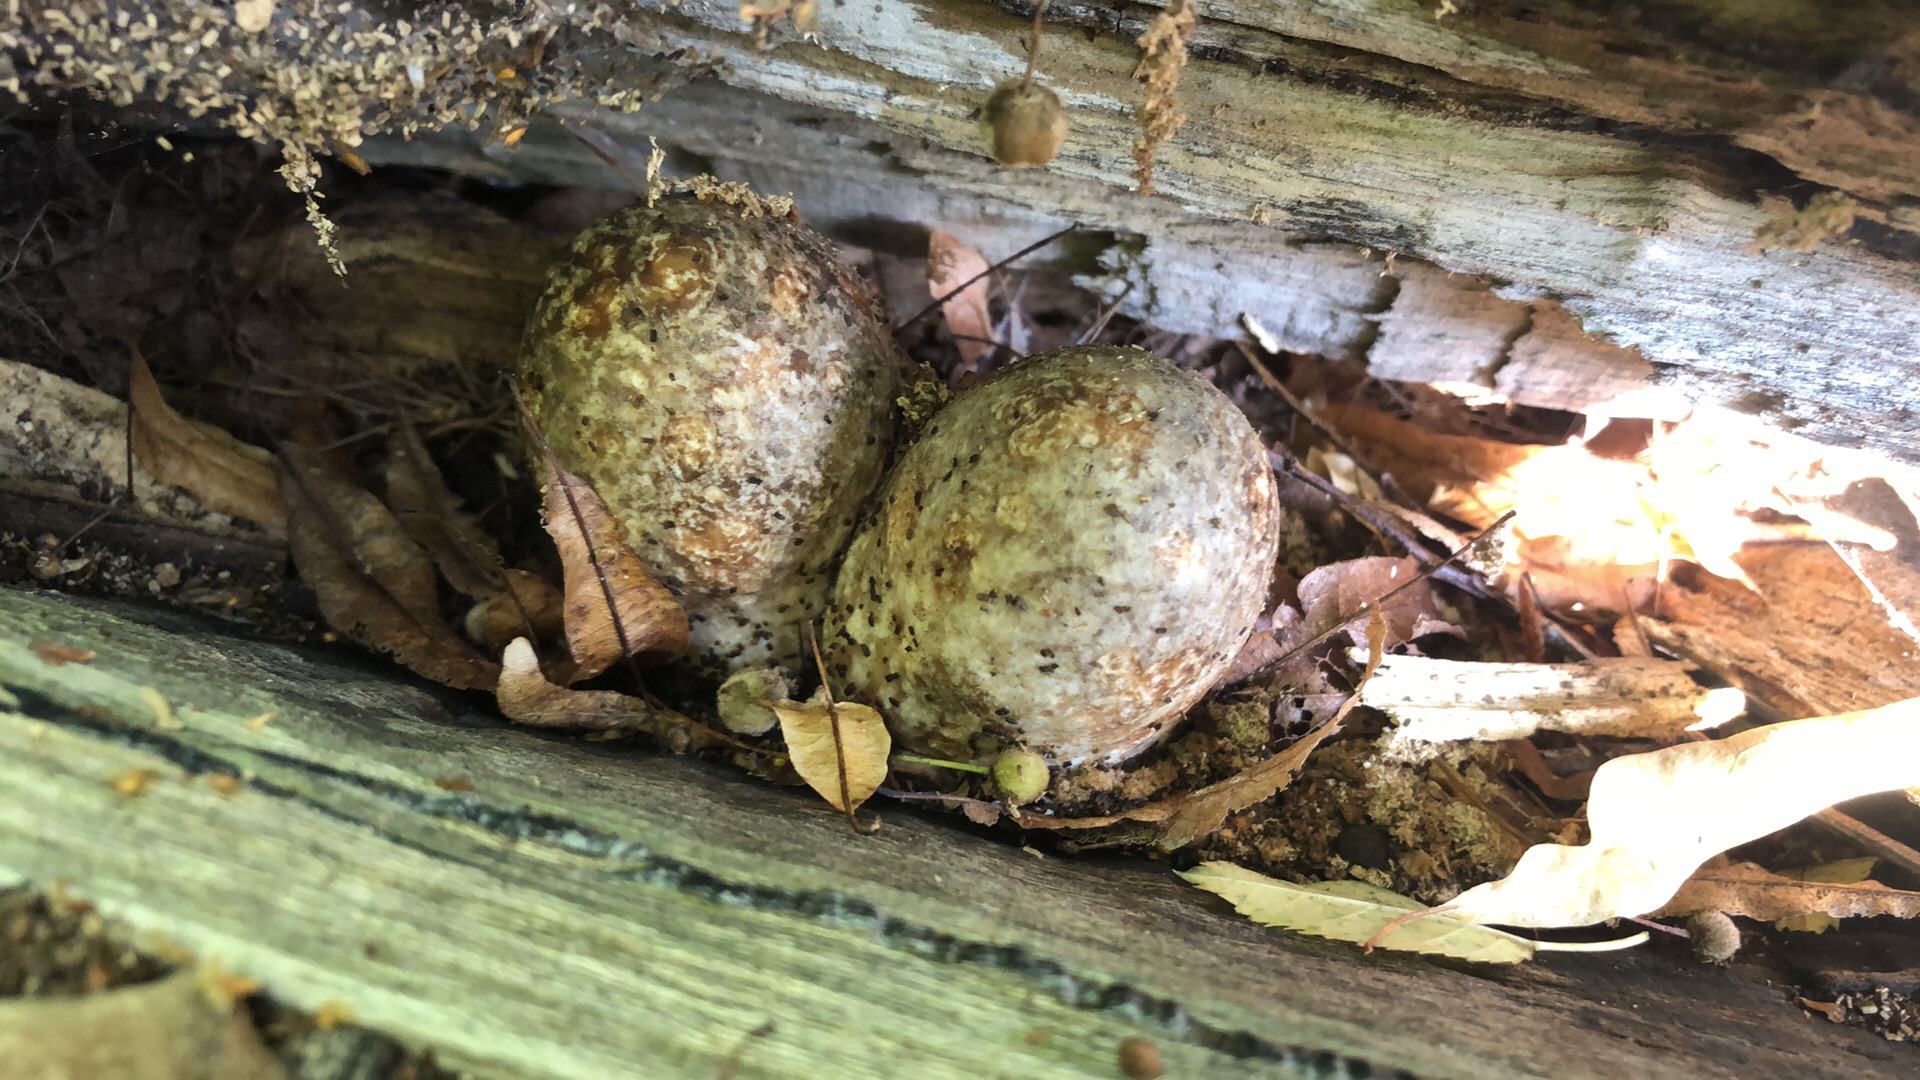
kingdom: Fungi
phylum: Basidiomycota
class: Agaricomycetes
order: Agaricales
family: Pluteaceae
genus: Volvariella
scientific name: Volvariella bombycina
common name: silkehåret posesvamp
